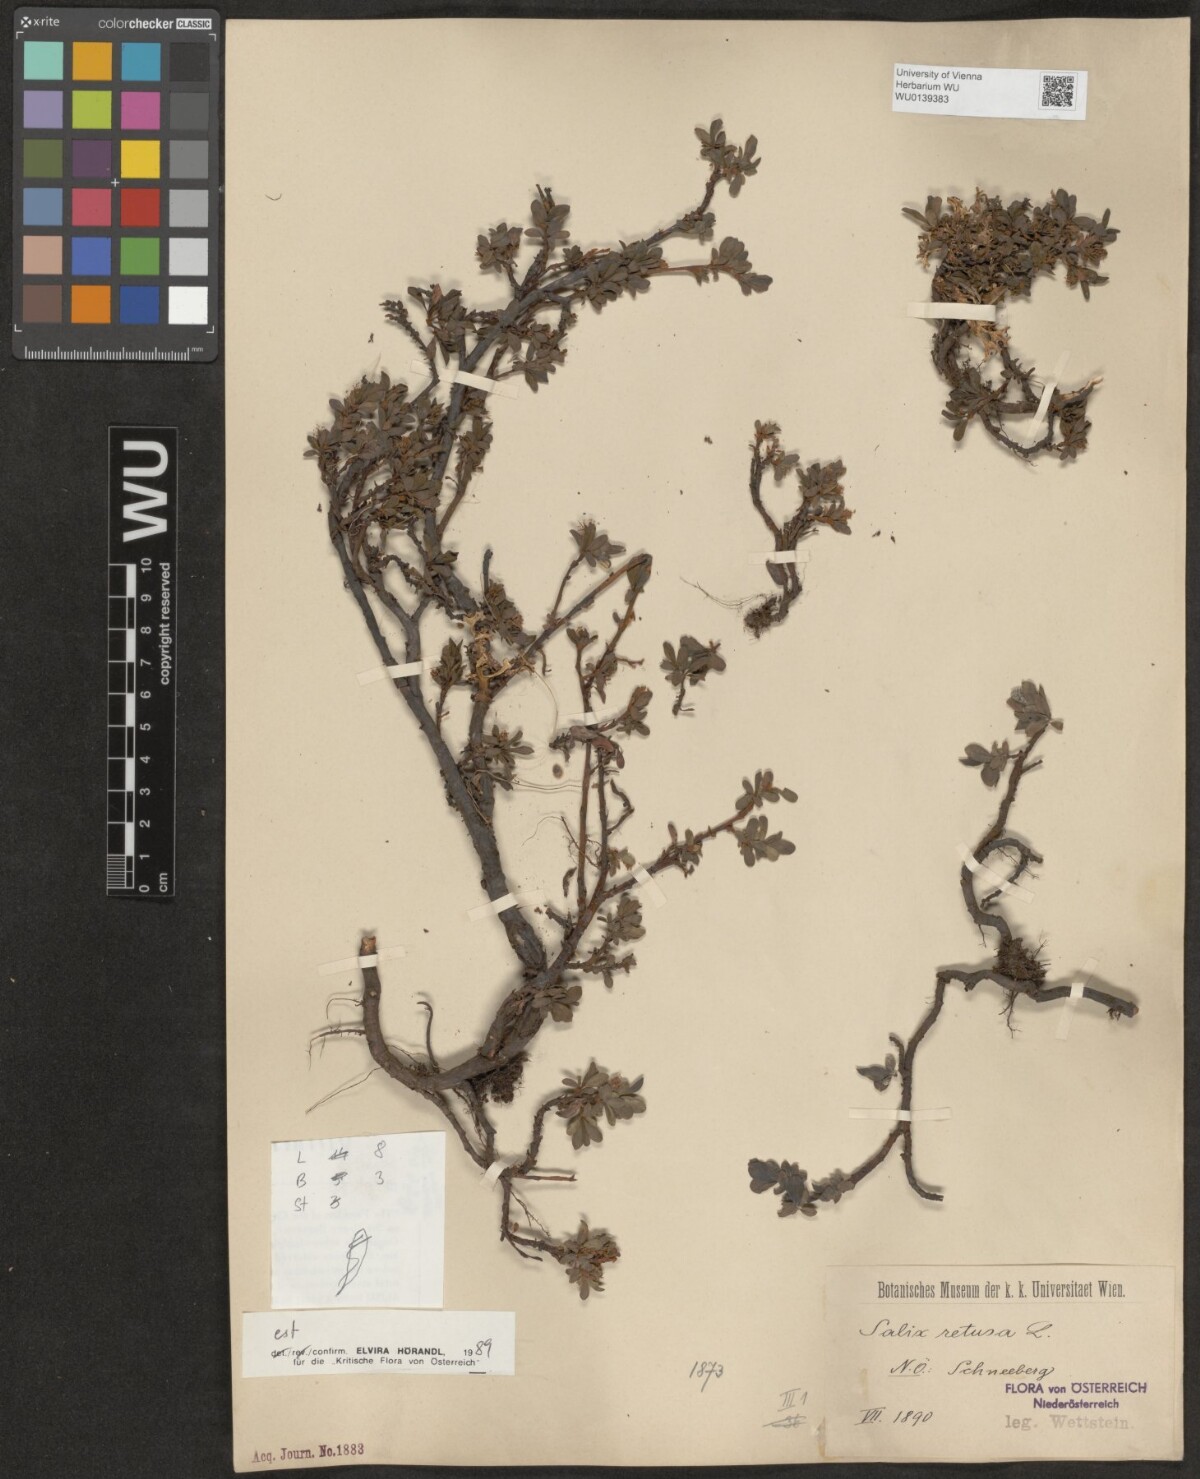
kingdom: Plantae
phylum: Tracheophyta
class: Magnoliopsida
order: Malpighiales
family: Salicaceae
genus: Salix
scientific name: Salix retusa
